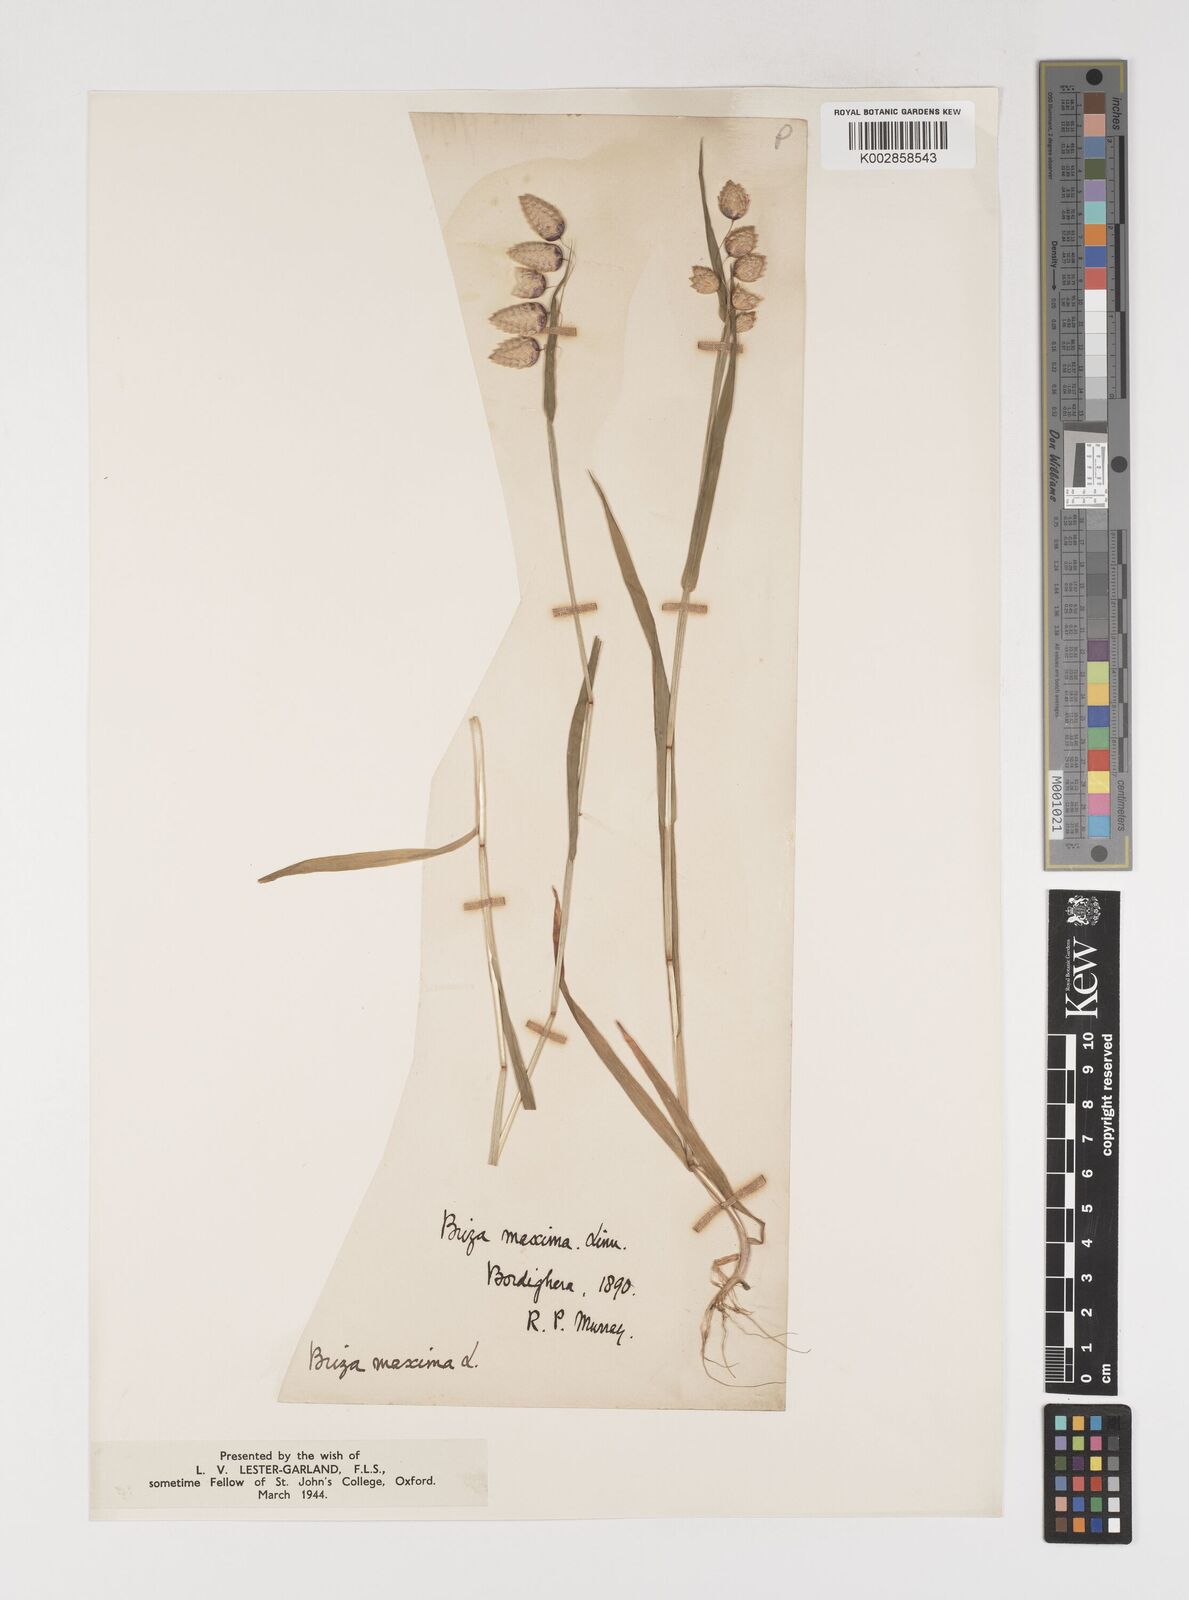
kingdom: Plantae
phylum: Tracheophyta
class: Liliopsida
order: Poales
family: Poaceae
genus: Briza
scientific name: Briza maxima
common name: Big quakinggrass
